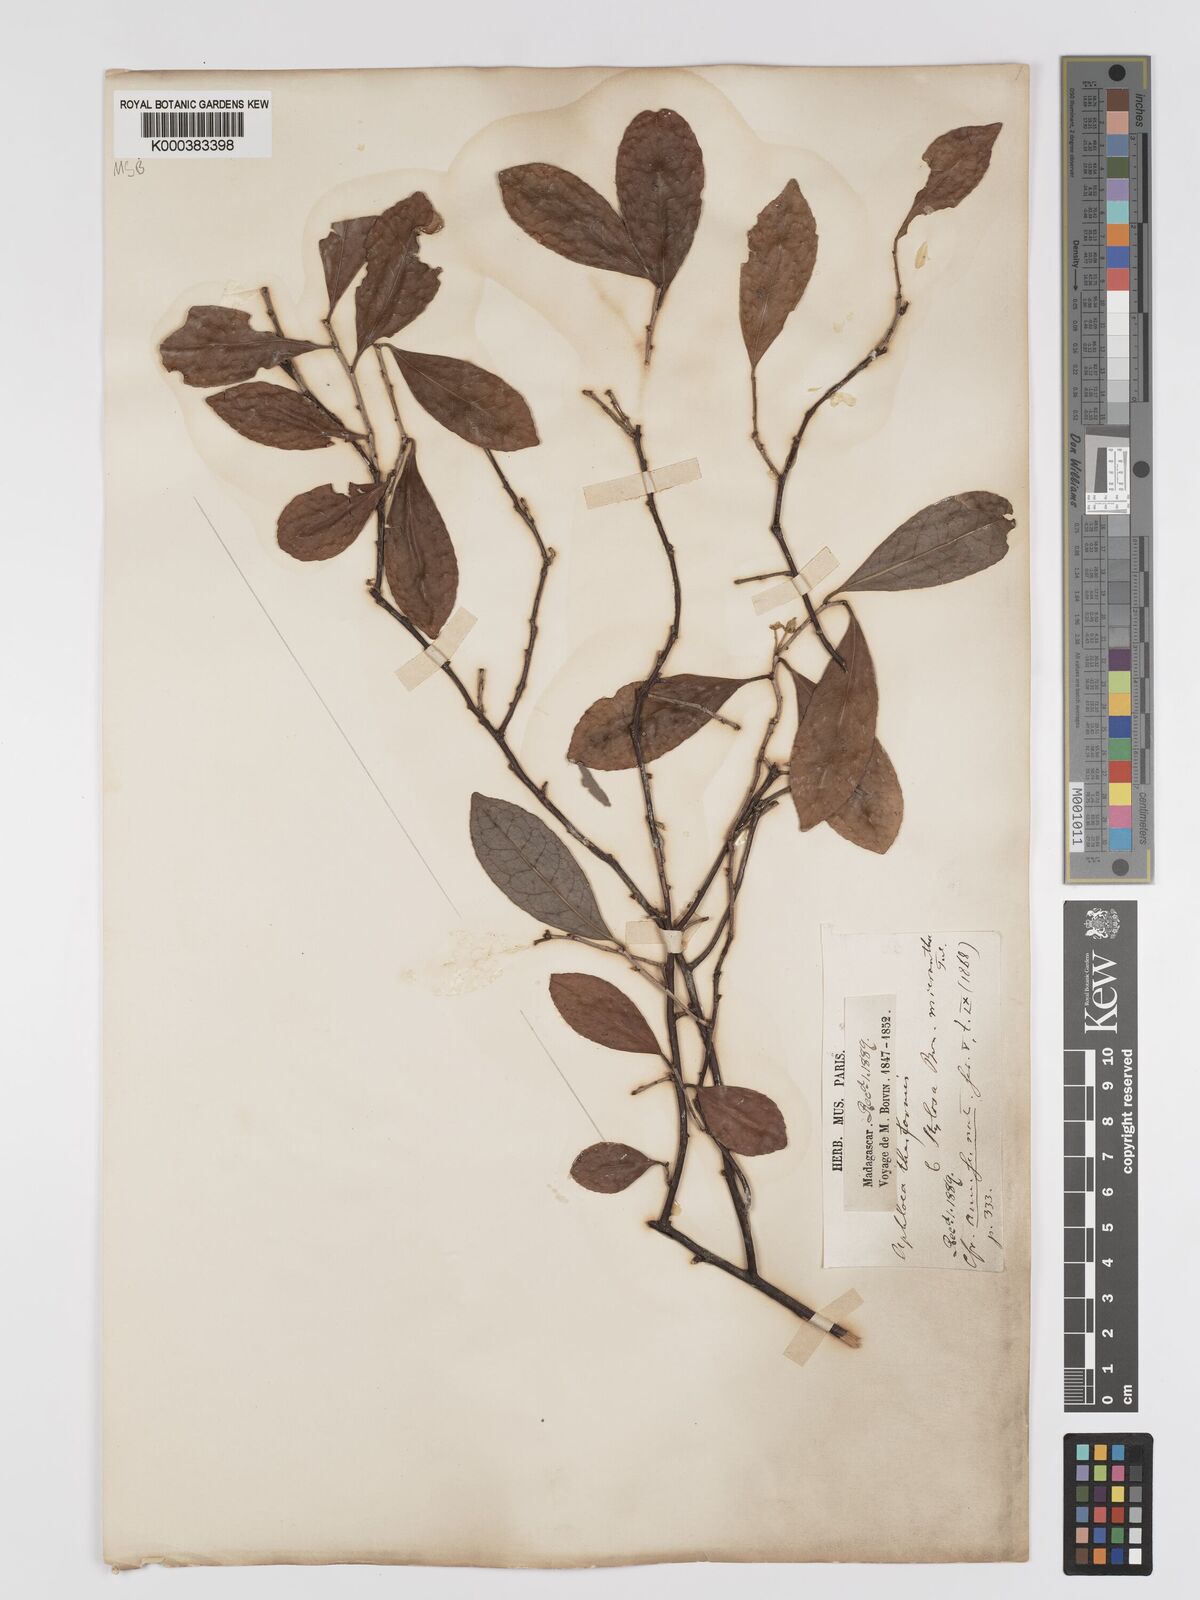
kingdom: Plantae
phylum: Tracheophyta
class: Magnoliopsida
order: Crossosomatales
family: Aphloiaceae
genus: Aphloia
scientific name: Aphloia theiformis
